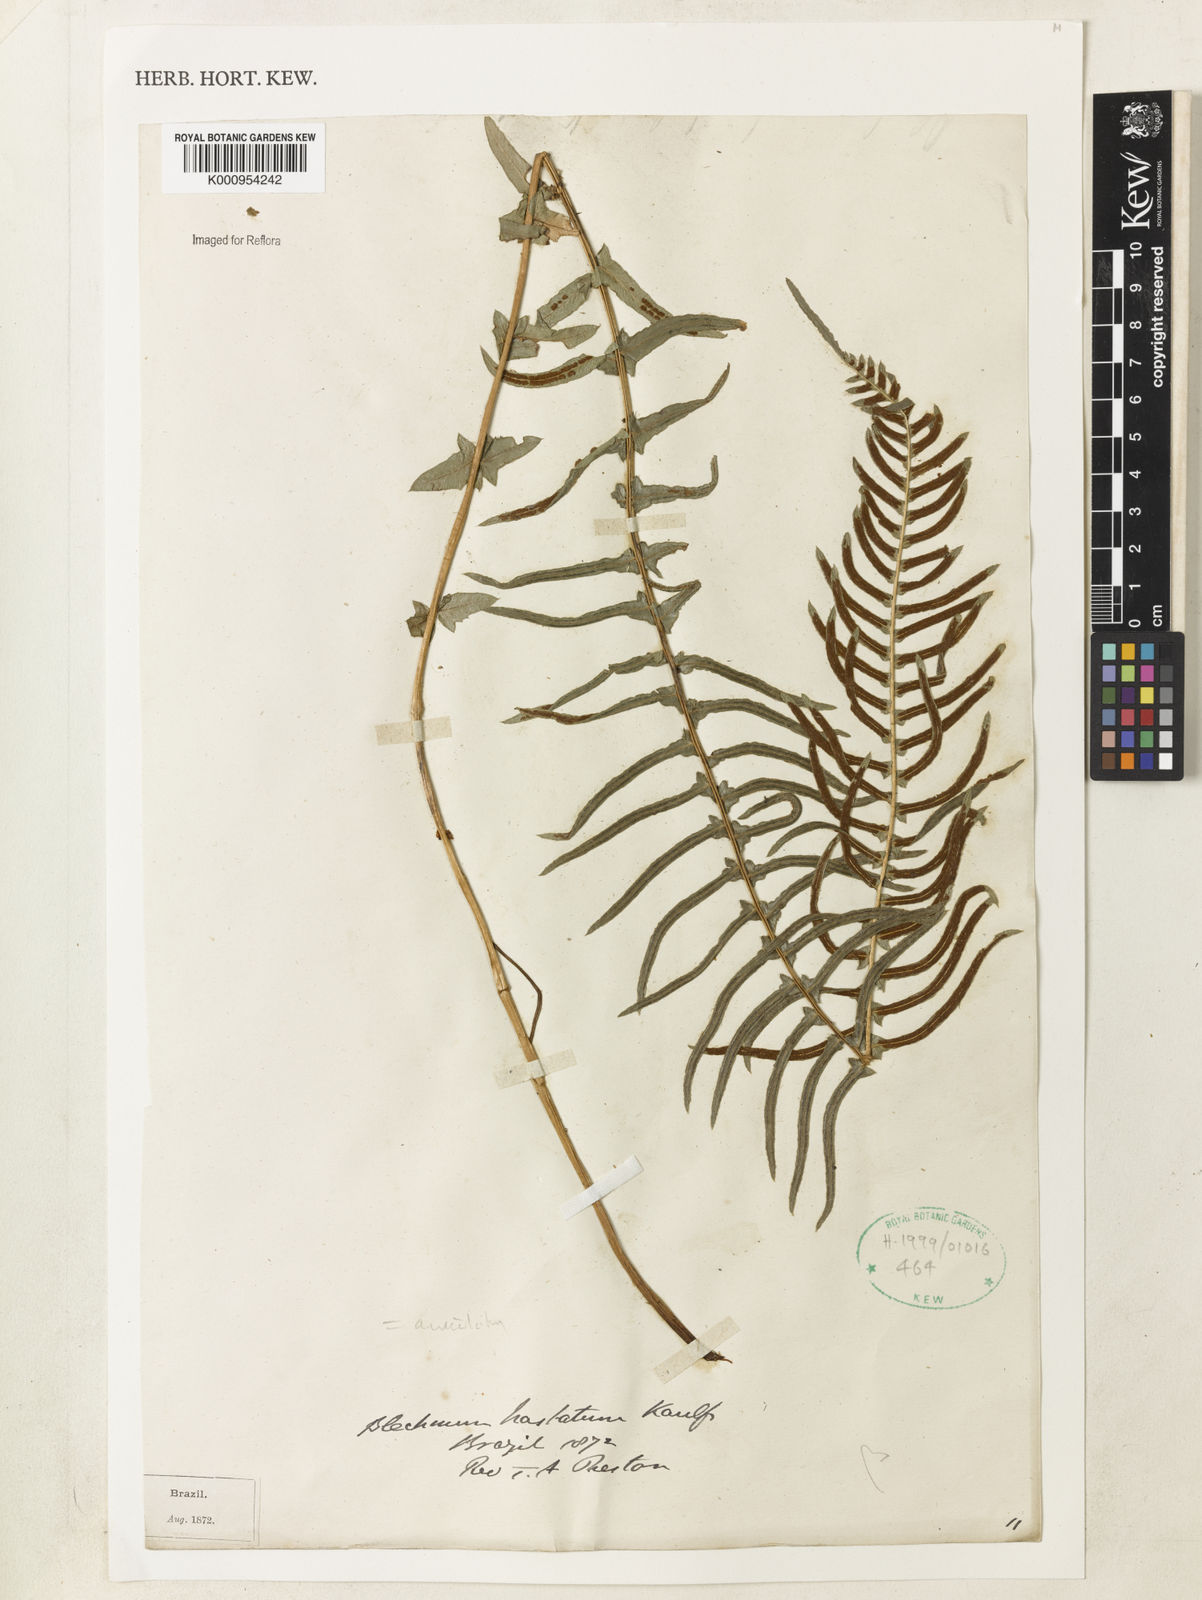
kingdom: Plantae
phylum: Tracheophyta
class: Polypodiopsida
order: Polypodiales
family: Blechnaceae
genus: Blechnum
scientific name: Blechnum australe
